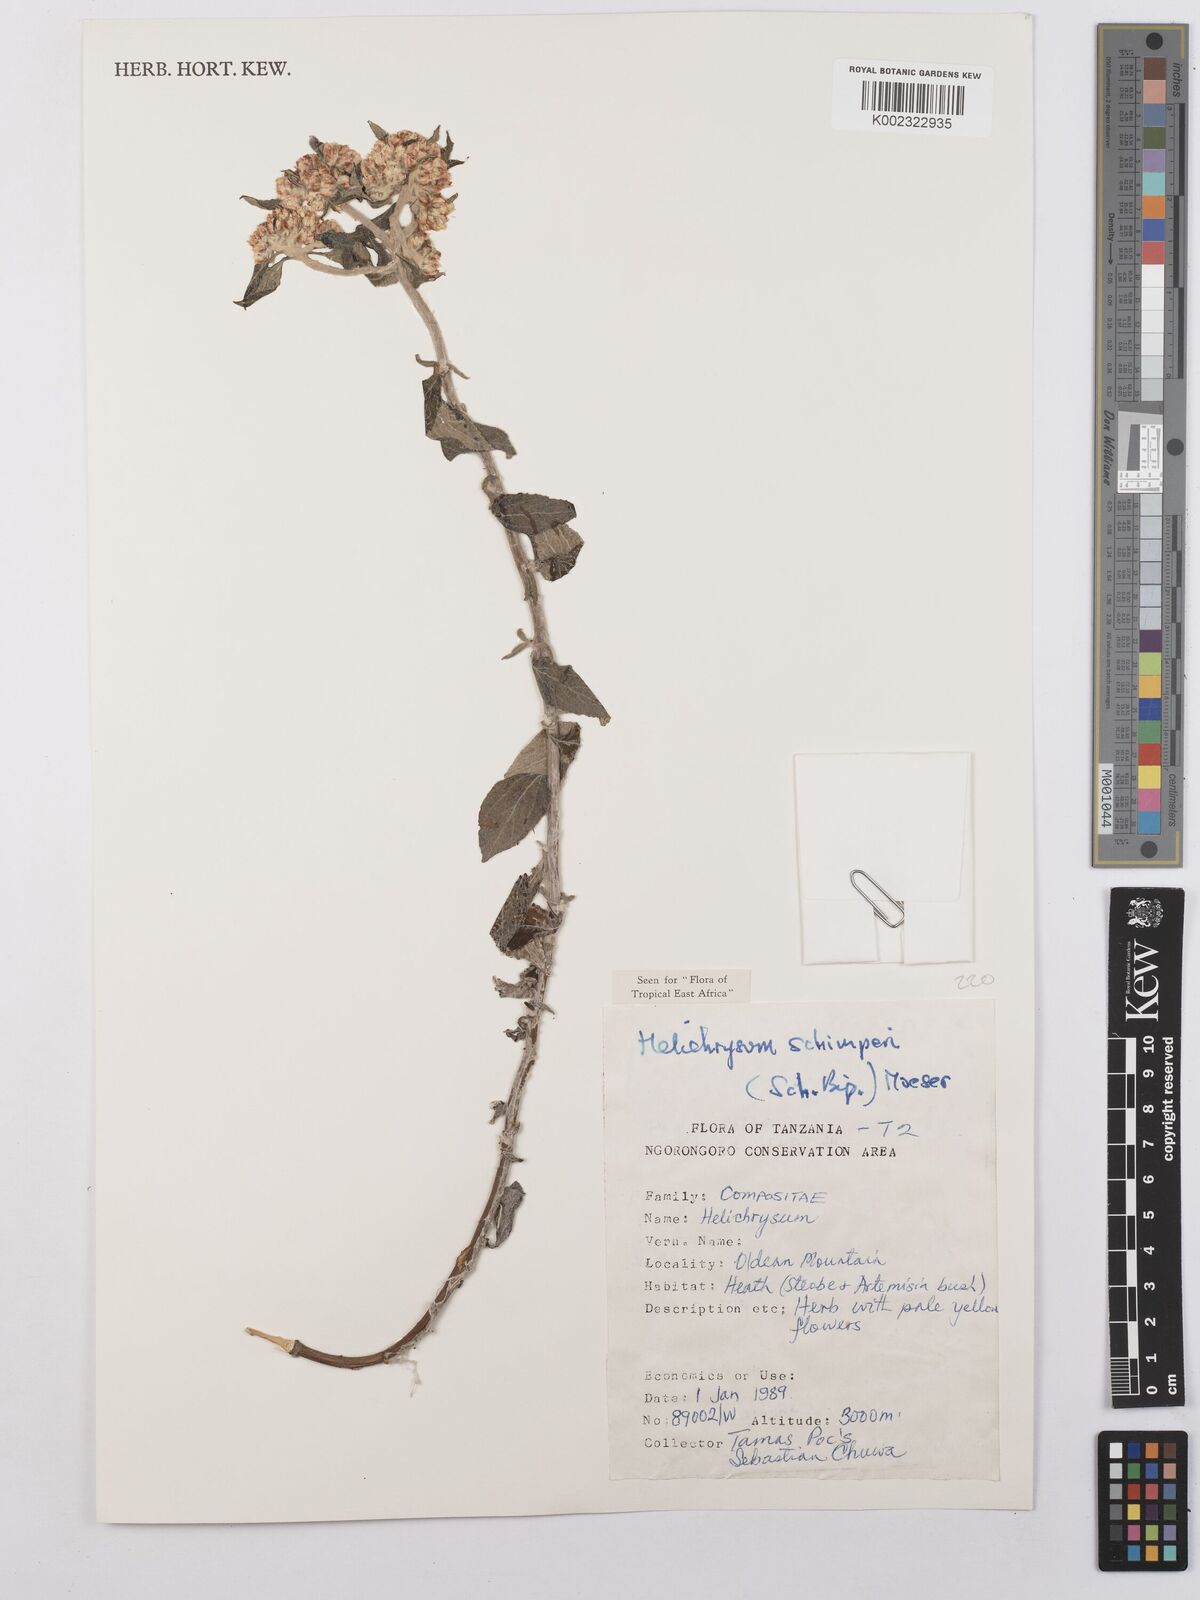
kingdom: Plantae
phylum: Tracheophyta
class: Magnoliopsida
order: Asterales
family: Asteraceae
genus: Helichrysum
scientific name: Helichrysum schimperi
